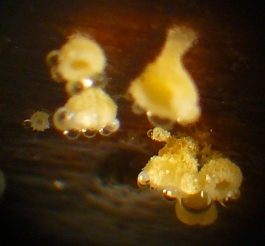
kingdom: Fungi
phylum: Ascomycota
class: Leotiomycetes
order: Helotiales
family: Lachnaceae
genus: Lachnum
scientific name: Lachnum clavigerum
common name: krystal-frynseskive
